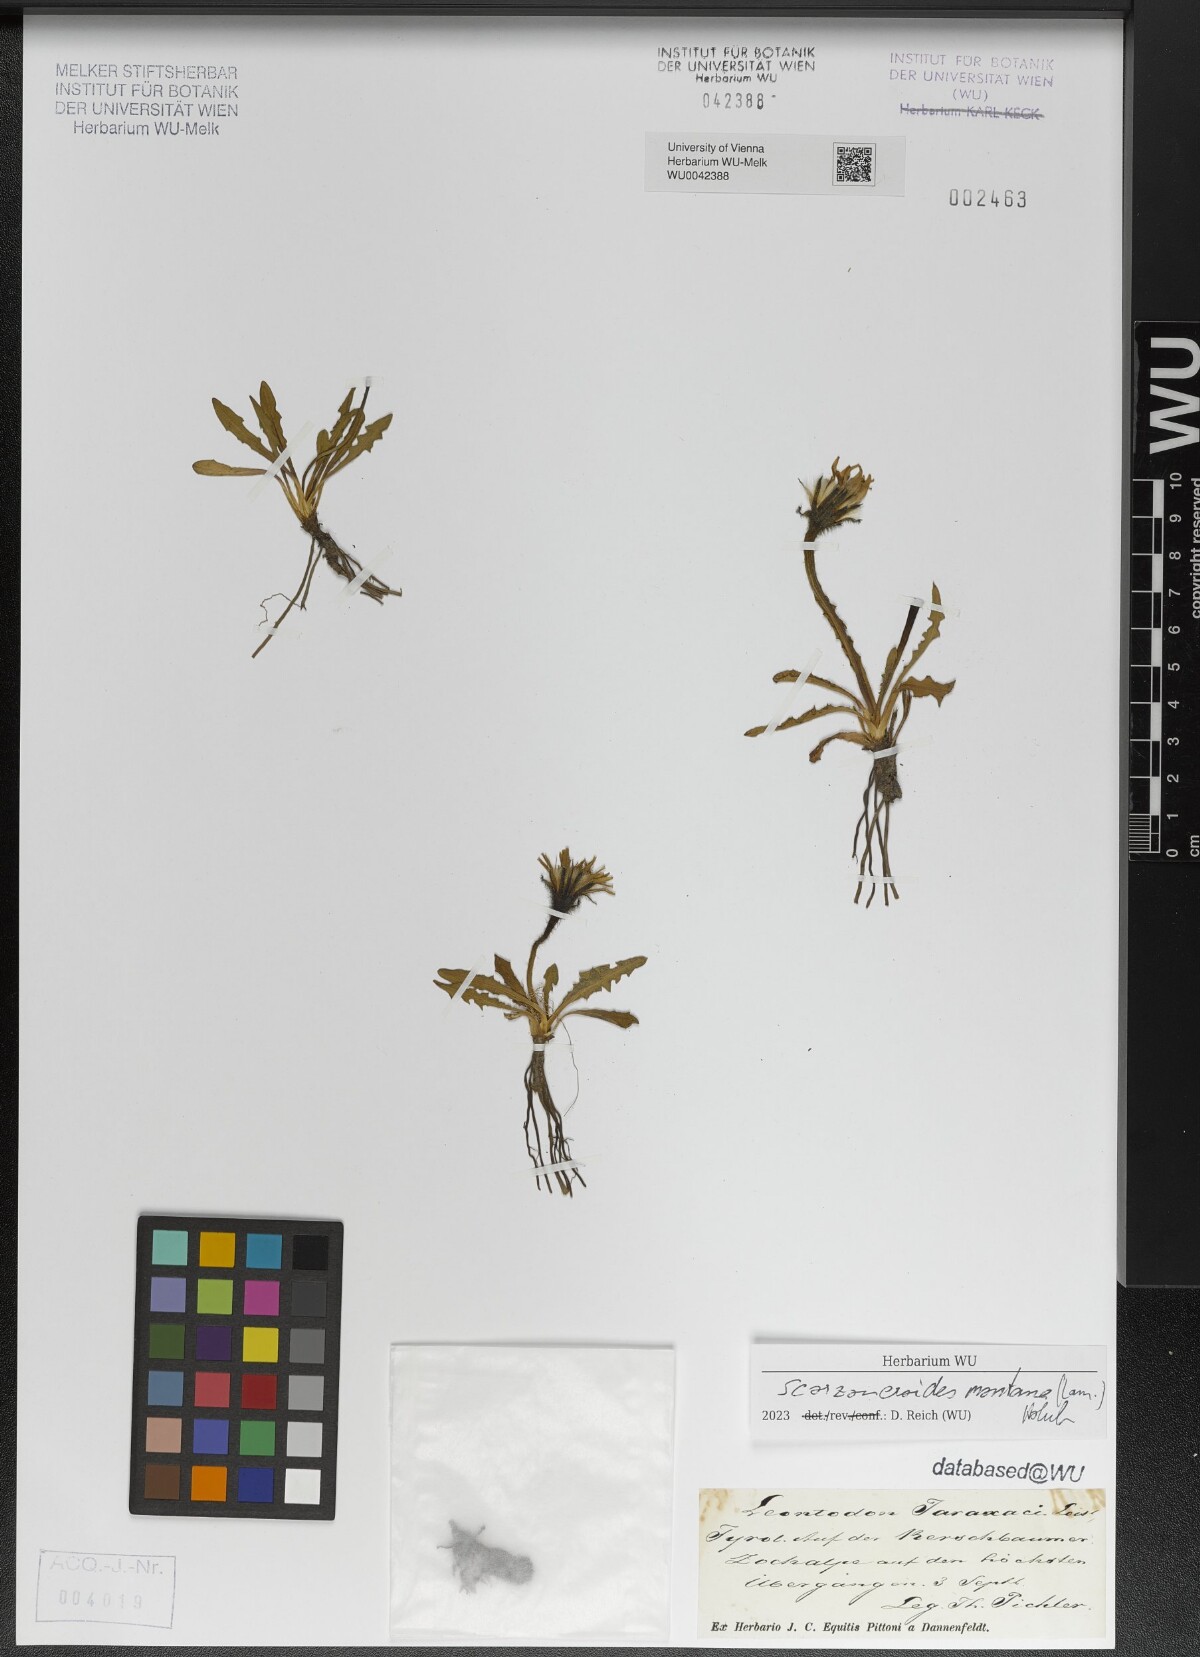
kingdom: Plantae
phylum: Tracheophyta
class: Magnoliopsida
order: Asterales
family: Asteraceae
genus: Scorzoneroides
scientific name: Scorzoneroides montana
